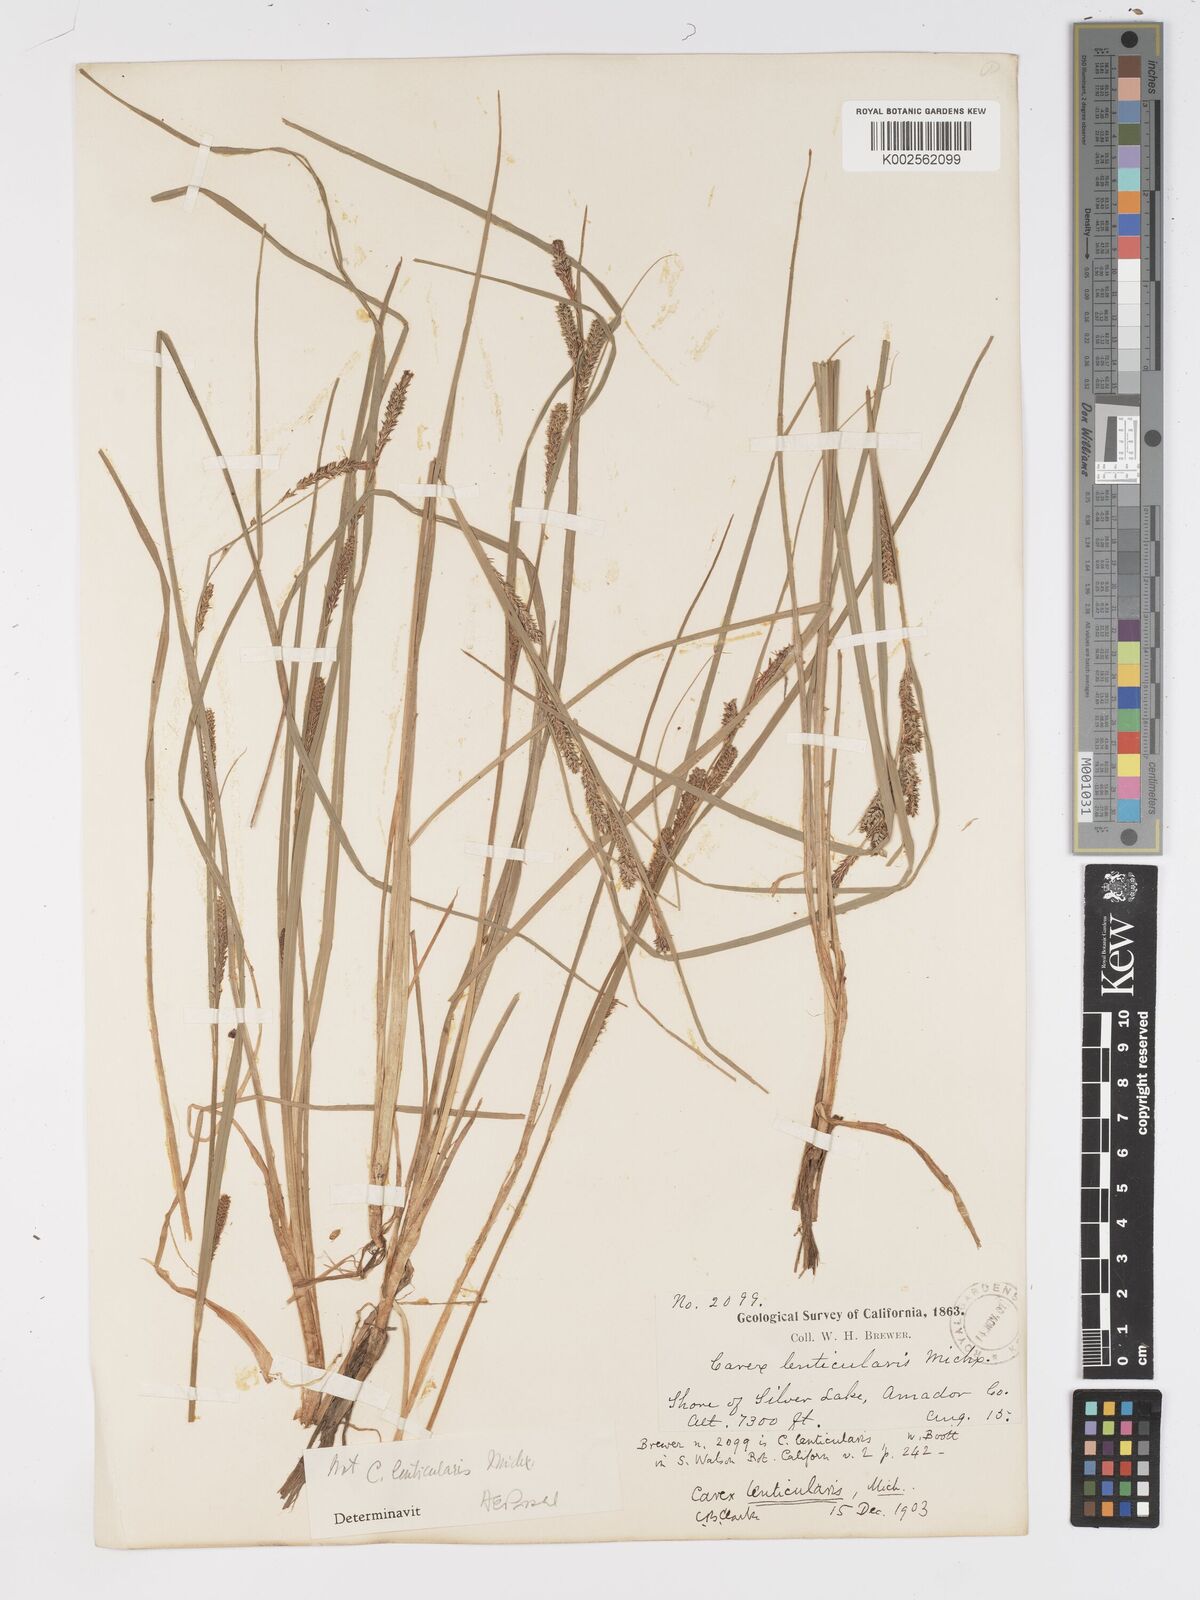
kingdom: Plantae
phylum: Tracheophyta
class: Liliopsida
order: Poales
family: Cyperaceae
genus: Carex
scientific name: Carex lenticularis
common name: Lakeshore sedge
